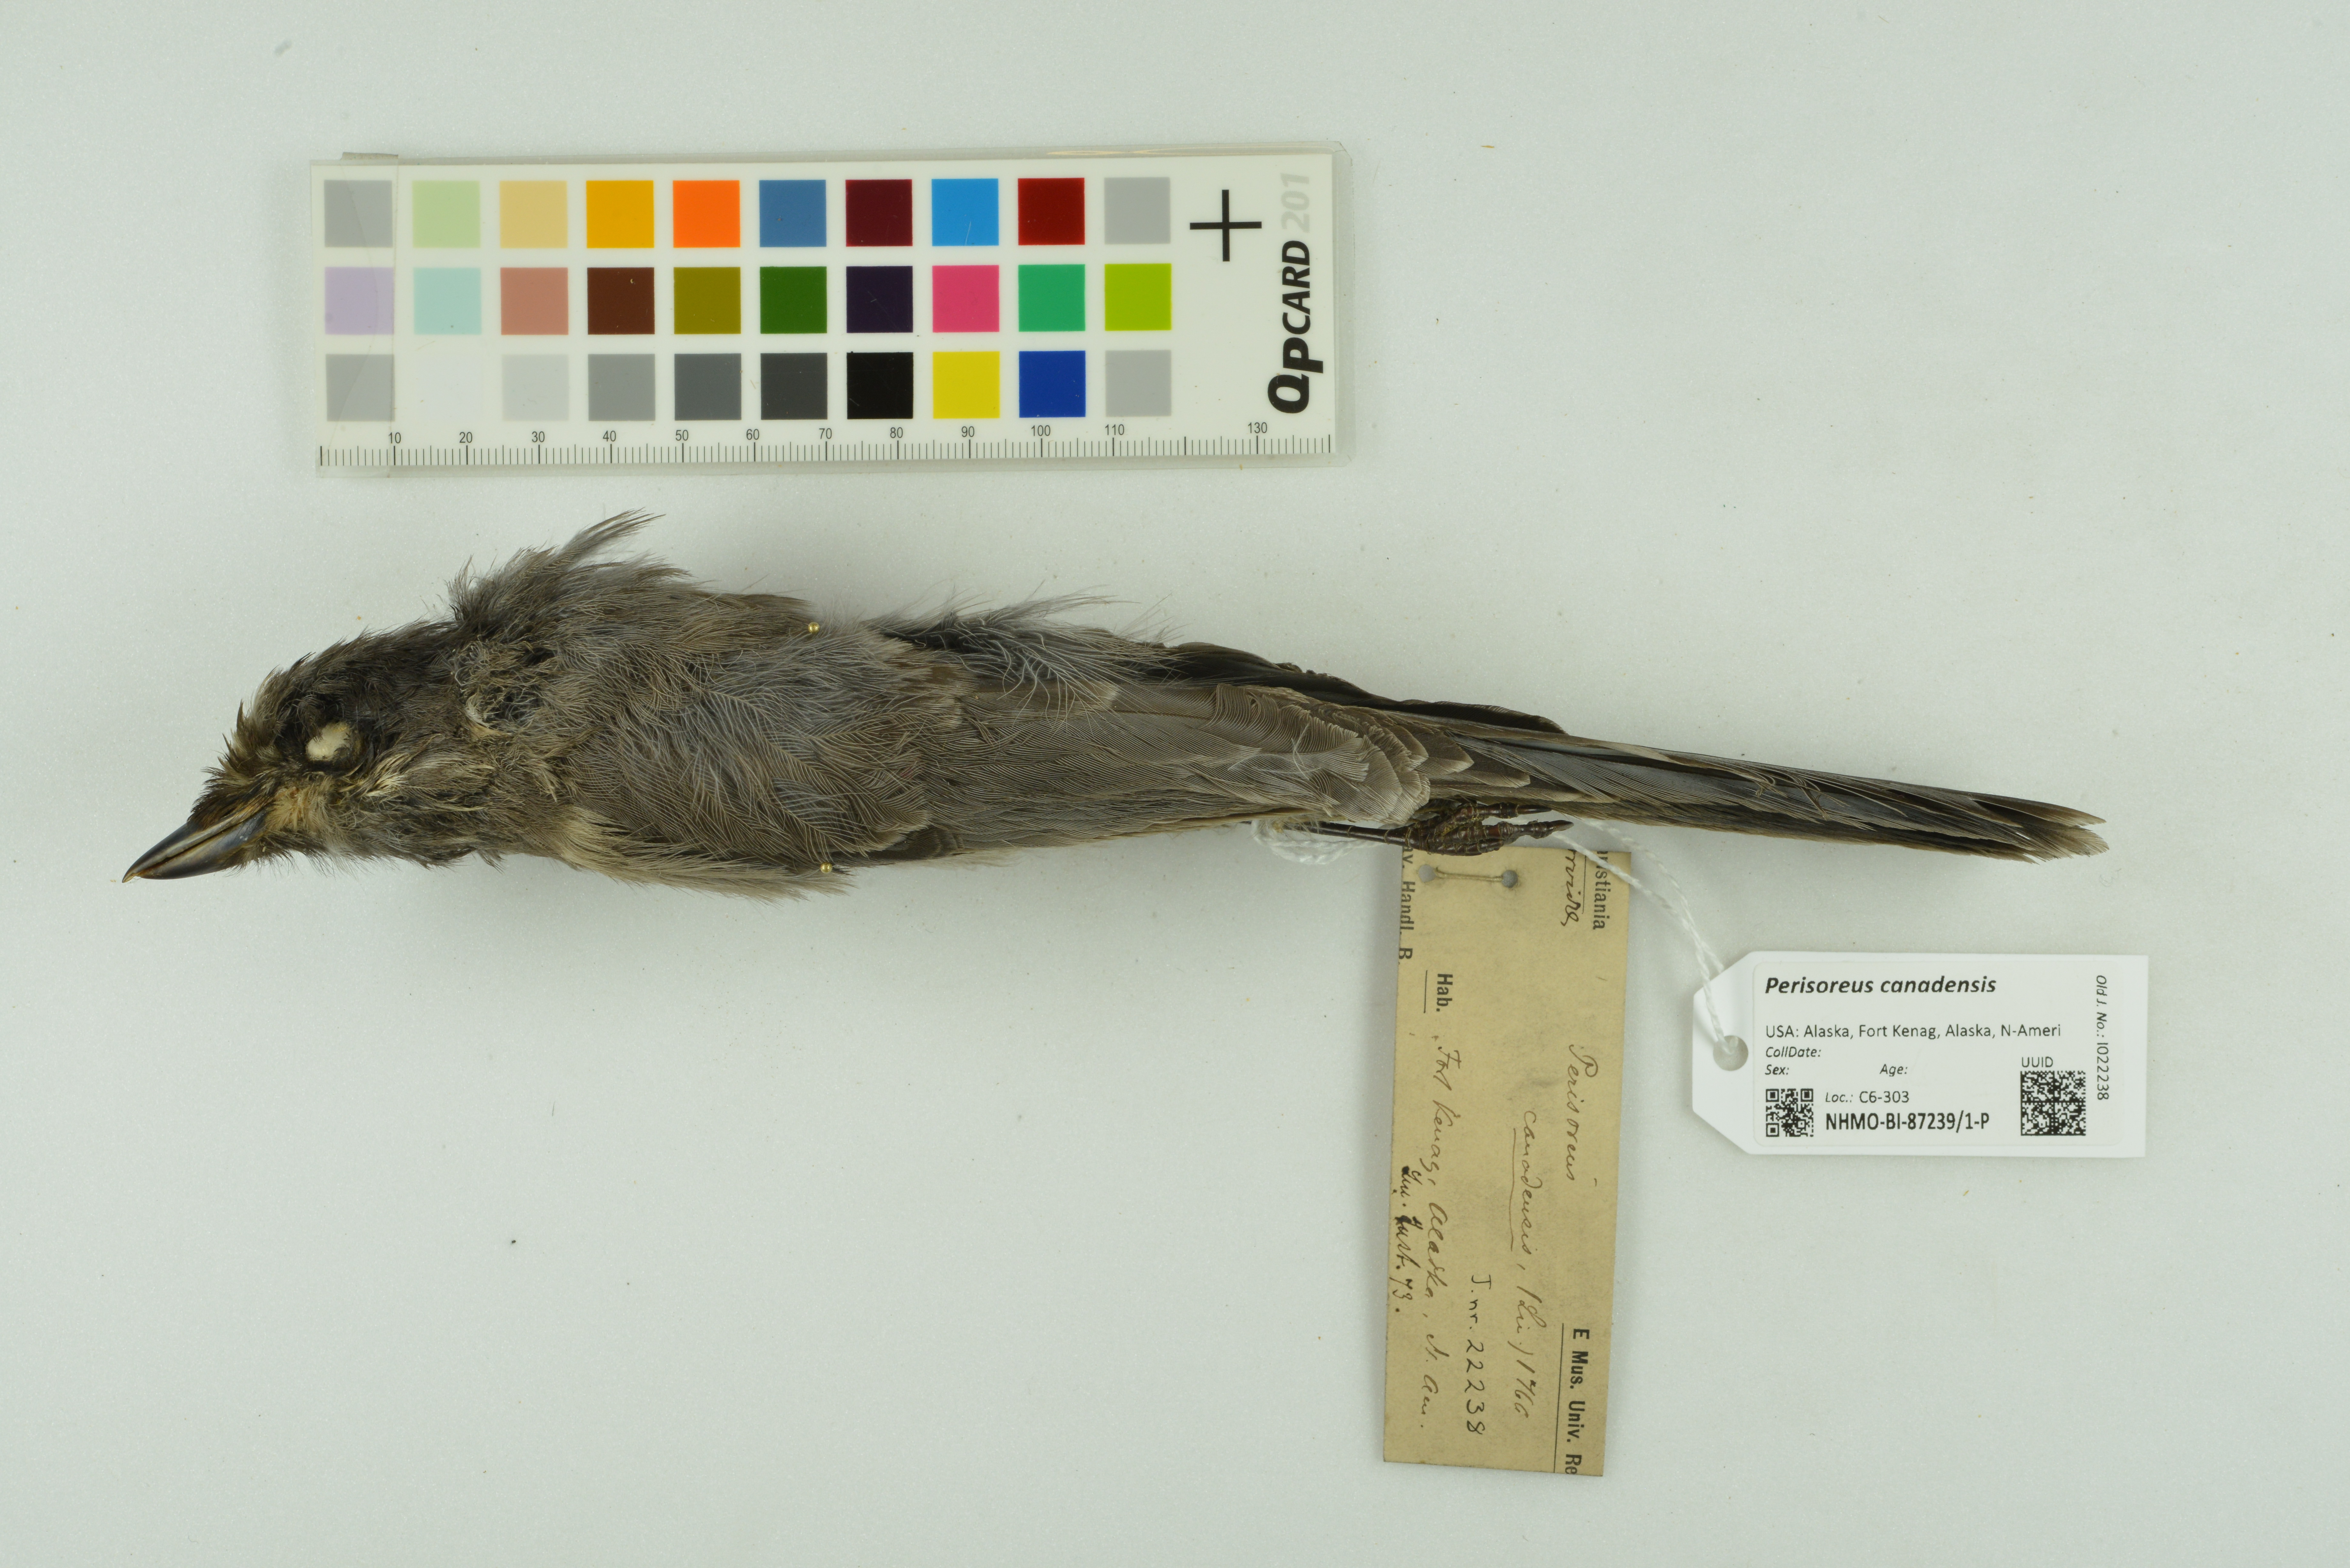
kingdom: Animalia
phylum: Chordata
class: Aves
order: Passeriformes
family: Corvidae
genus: Perisoreus
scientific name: Perisoreus canadensis
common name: Gray jay
